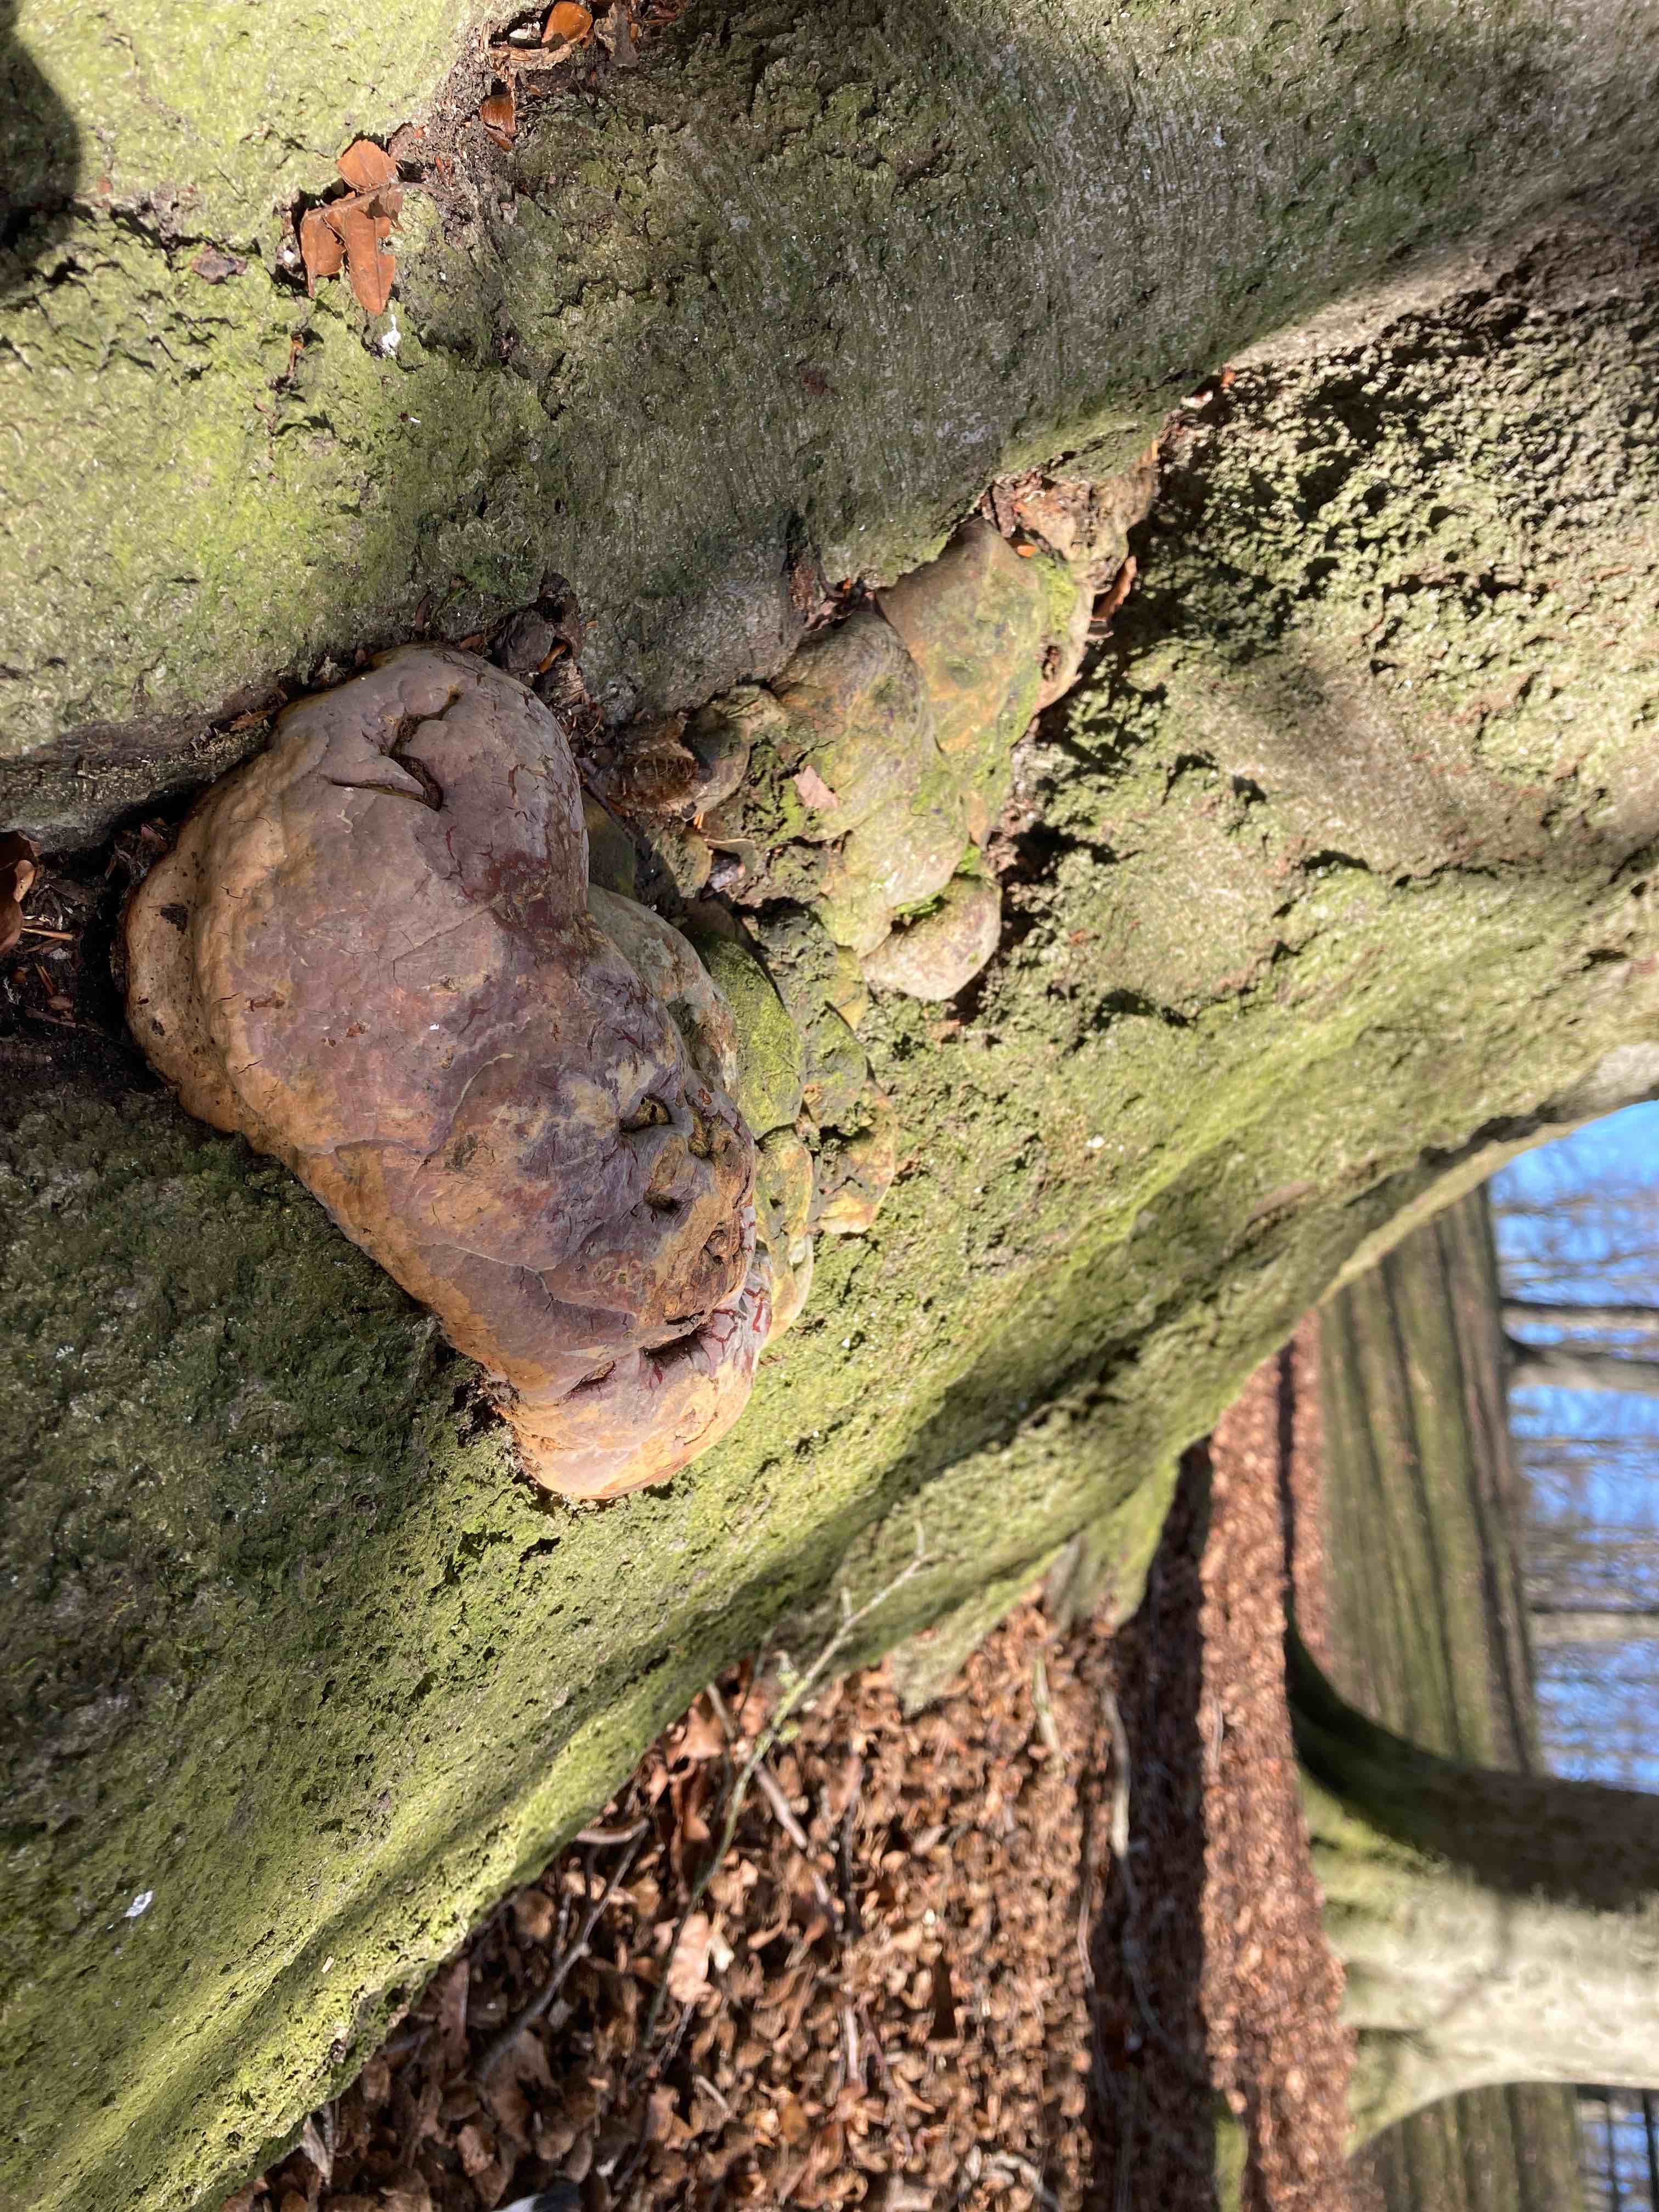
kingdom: Fungi
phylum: Basidiomycota
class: Agaricomycetes
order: Polyporales
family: Polyporaceae
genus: Ganoderma
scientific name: Ganoderma pfeifferi
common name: kobberrød lakporesvamp
